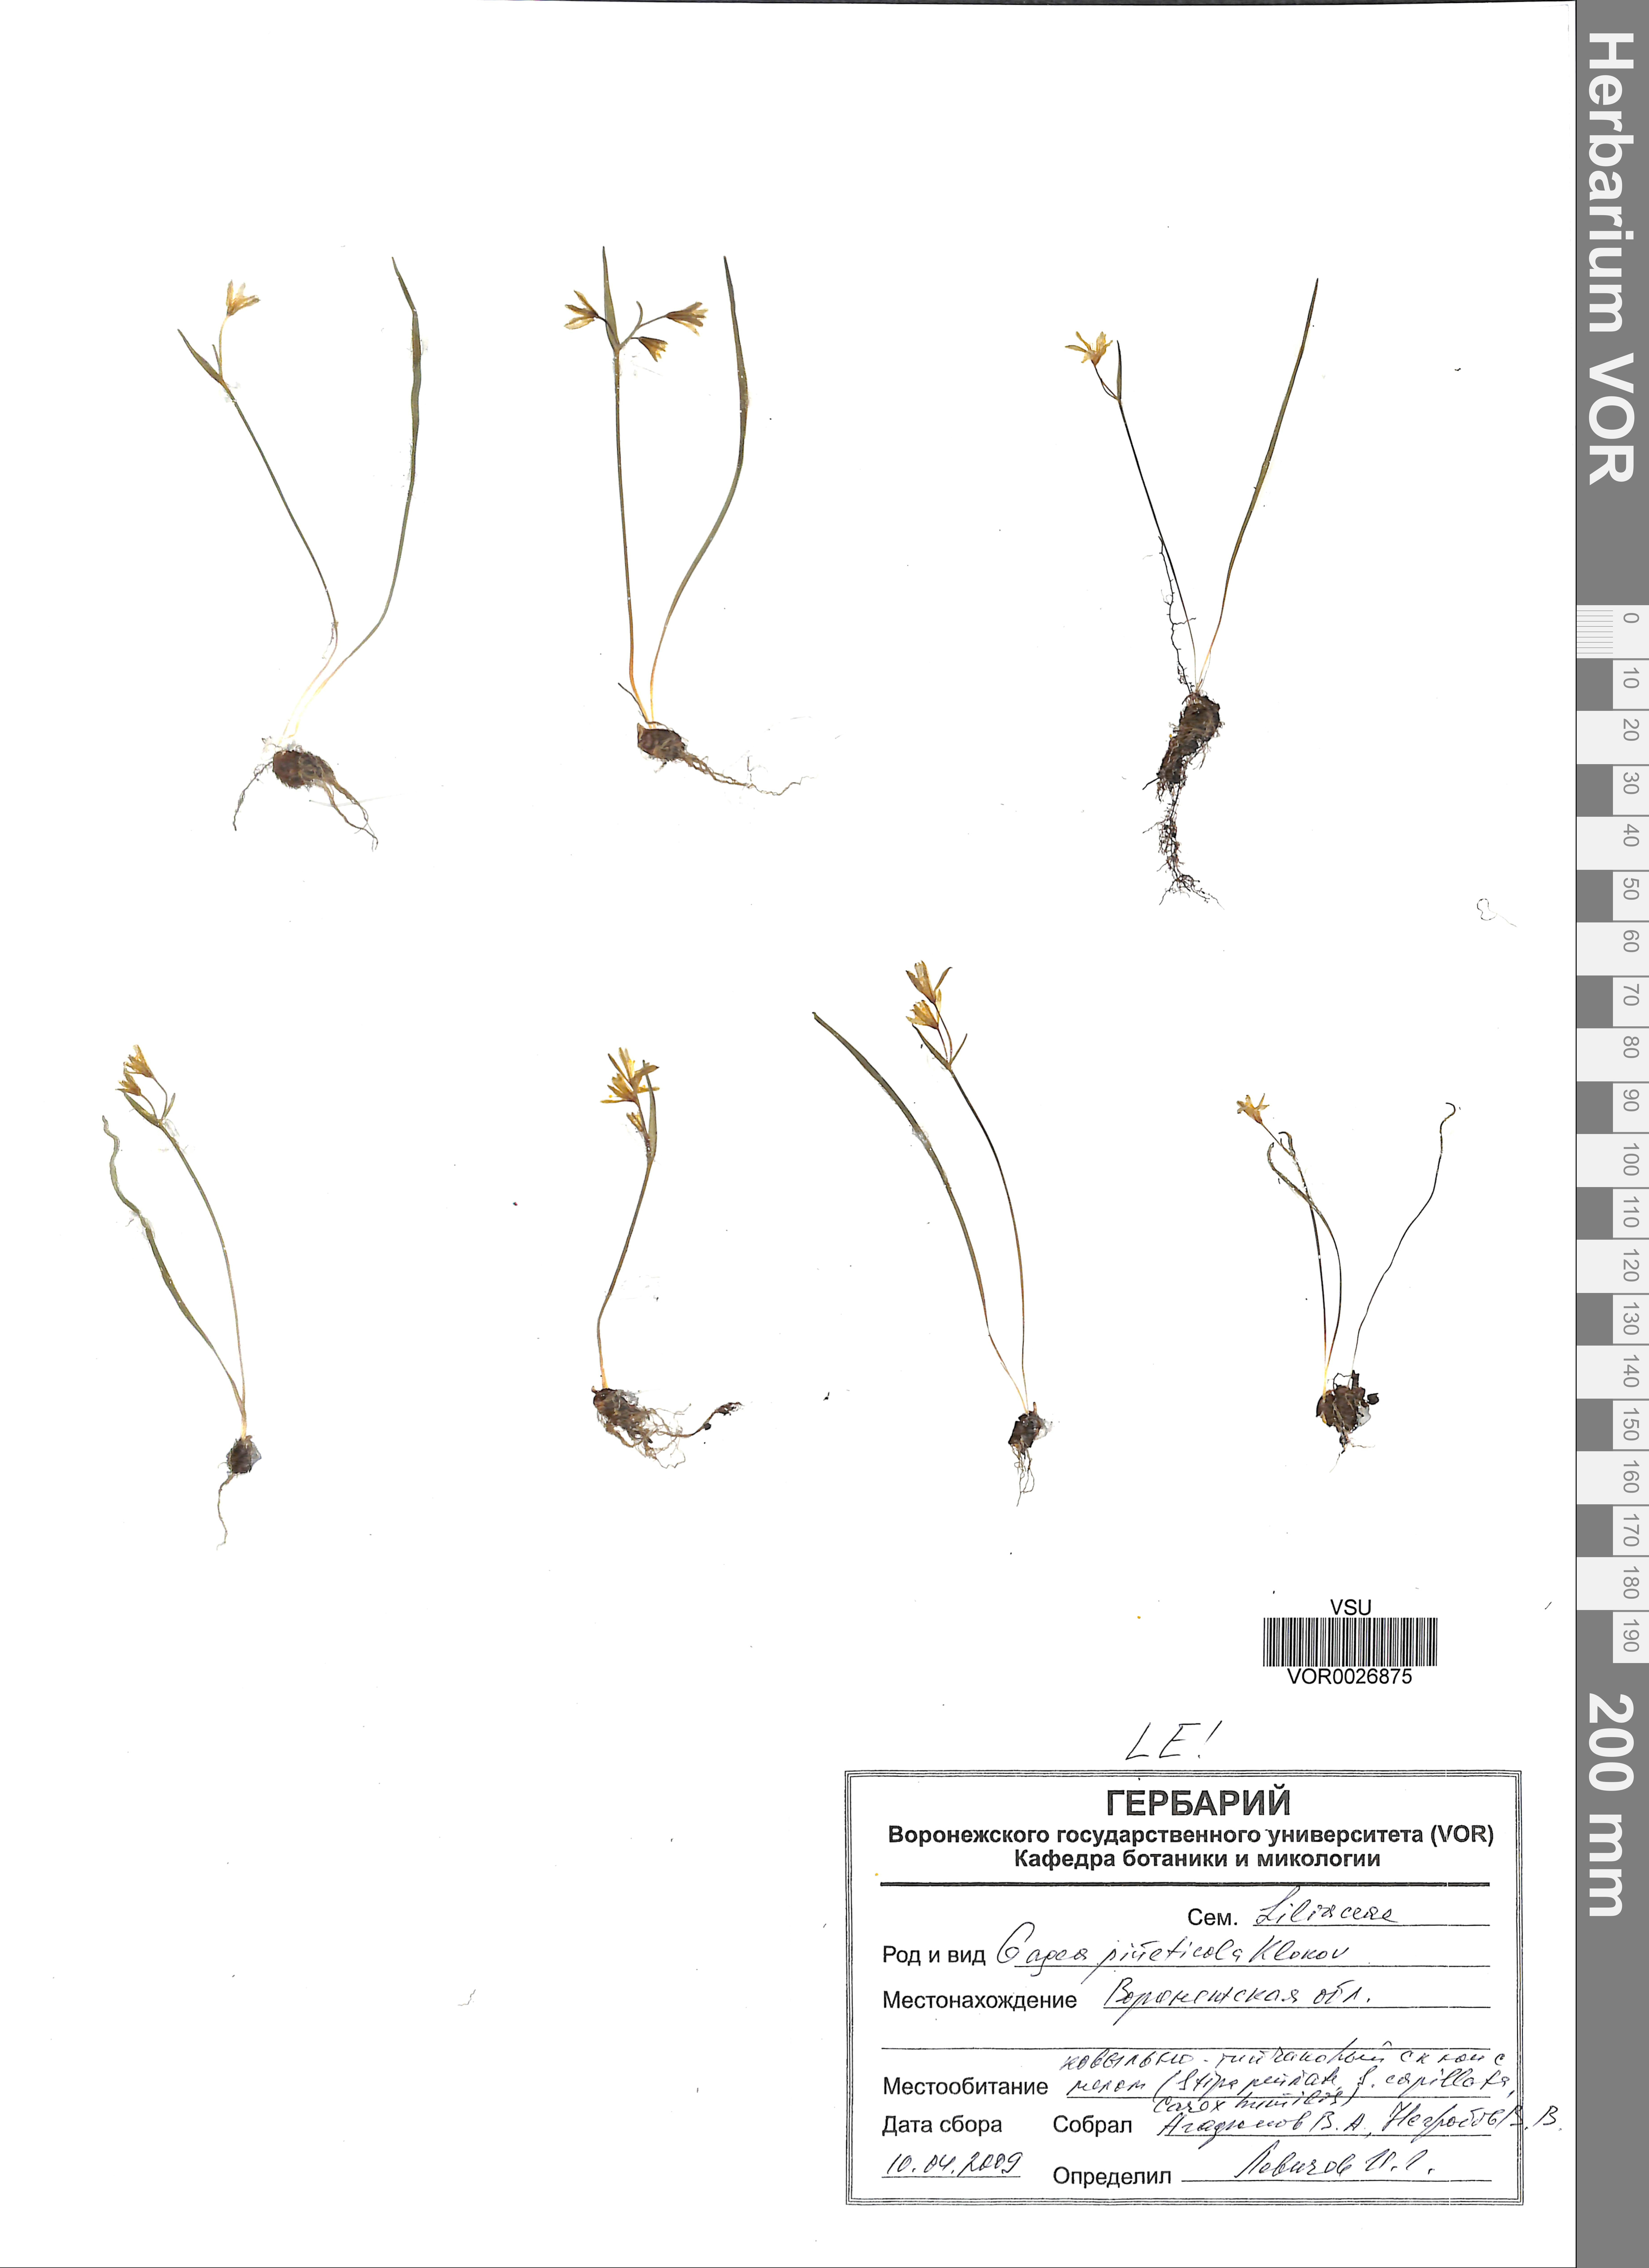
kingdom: Plantae
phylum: Tracheophyta
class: Liliopsida
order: Liliales
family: Liliaceae
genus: Gagea
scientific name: Gagea pusilla
